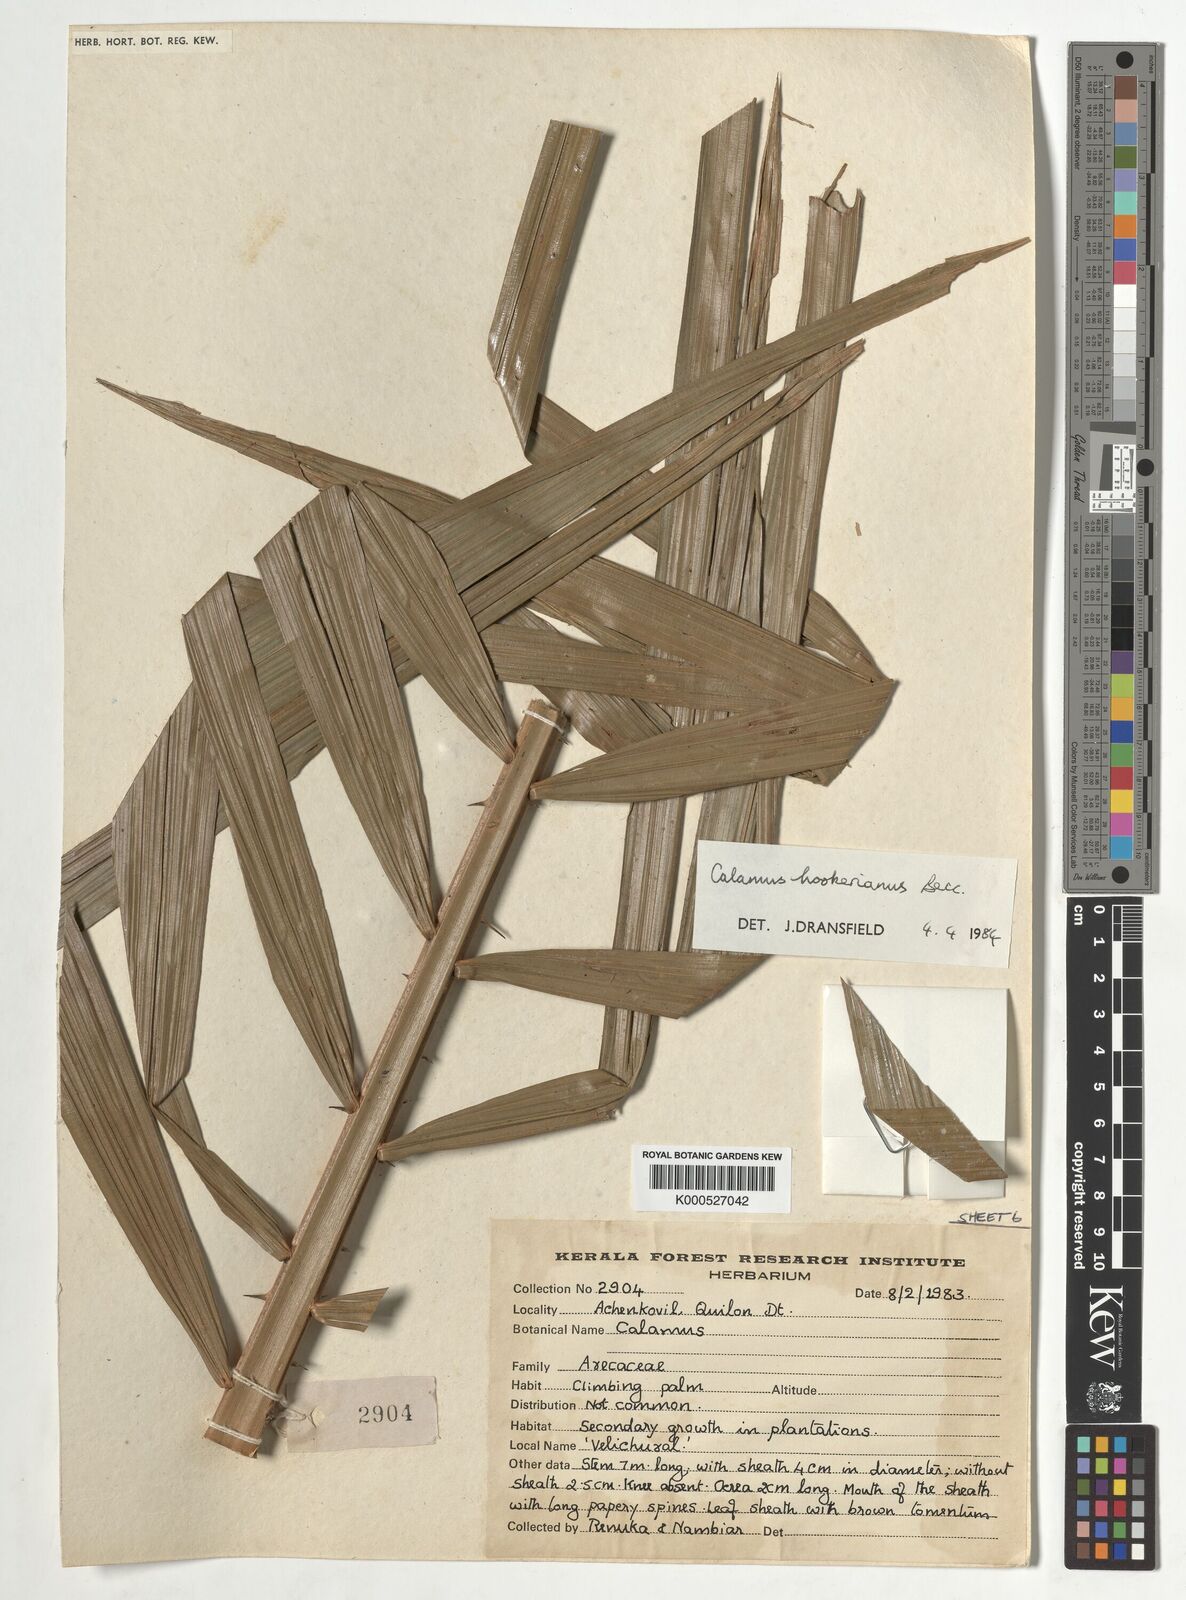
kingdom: Plantae
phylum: Tracheophyta
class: Liliopsida
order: Arecales
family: Arecaceae
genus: Calamus
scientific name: Calamus hookerianus
